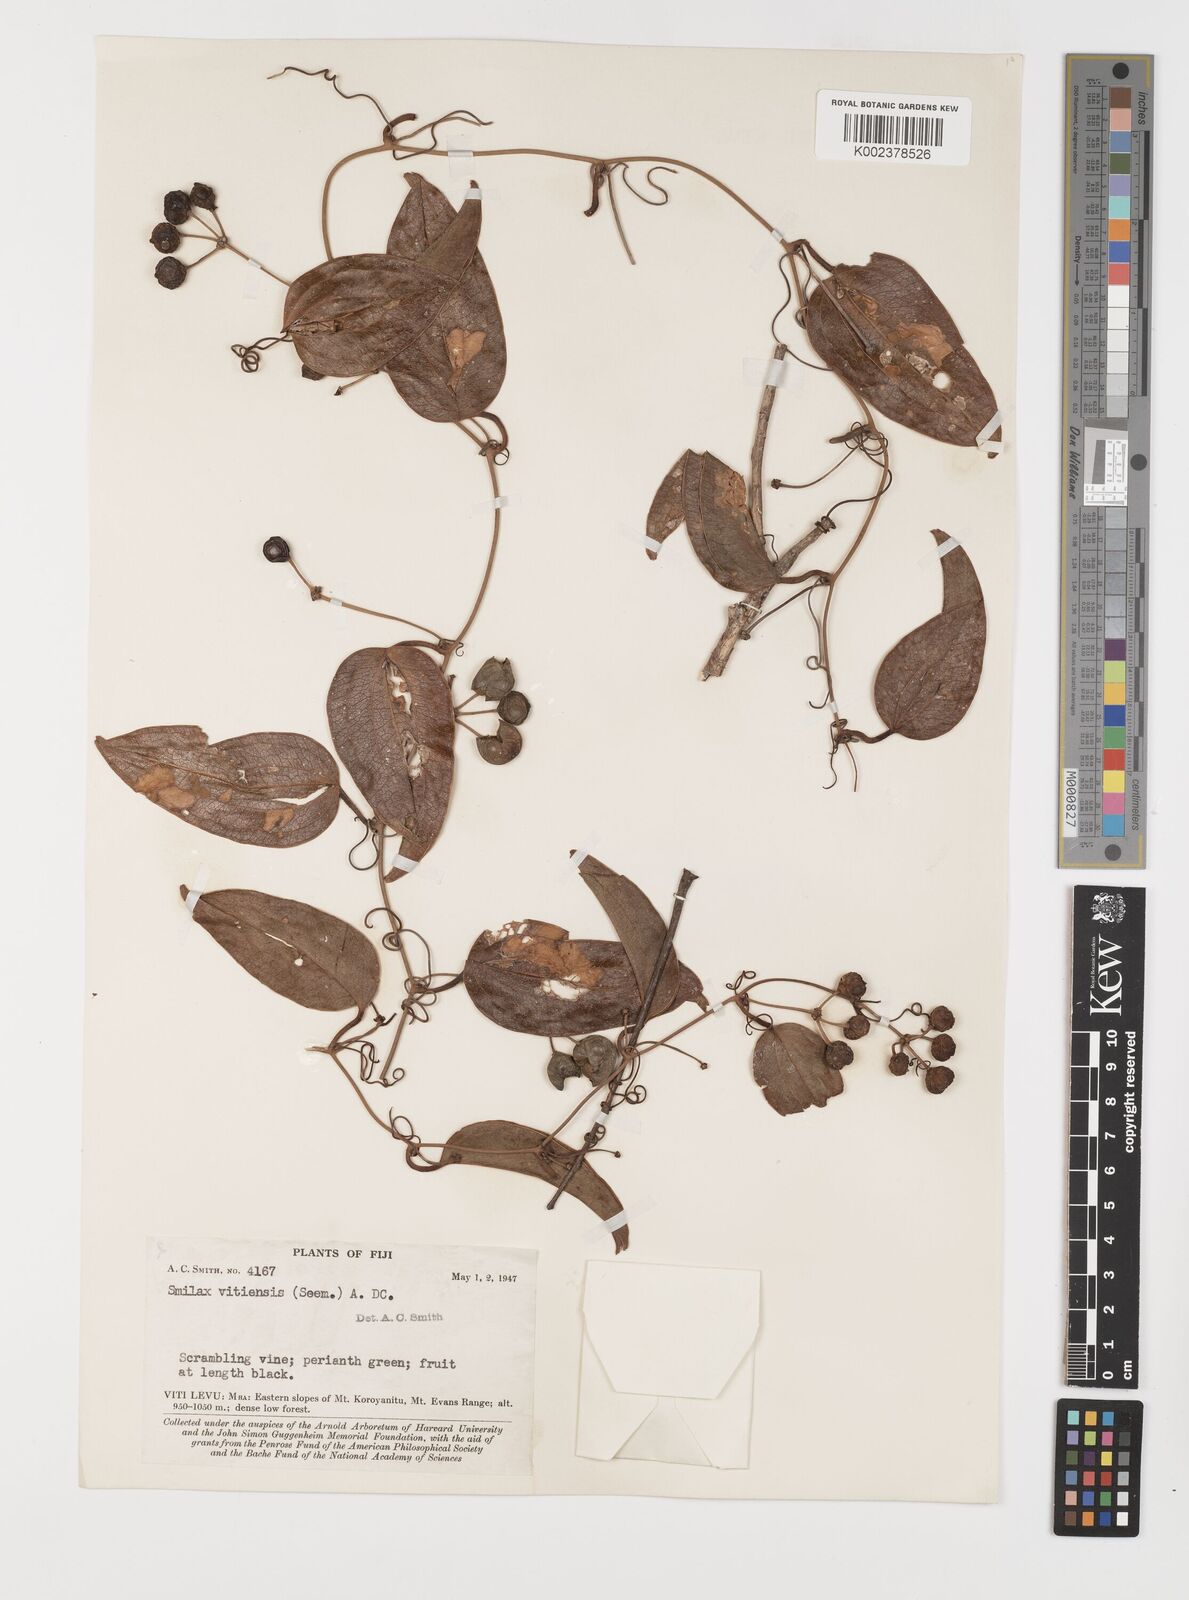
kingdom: Plantae
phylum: Tracheophyta
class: Liliopsida
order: Liliales
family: Smilacaceae
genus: Smilax
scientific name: Smilax vitiensis
